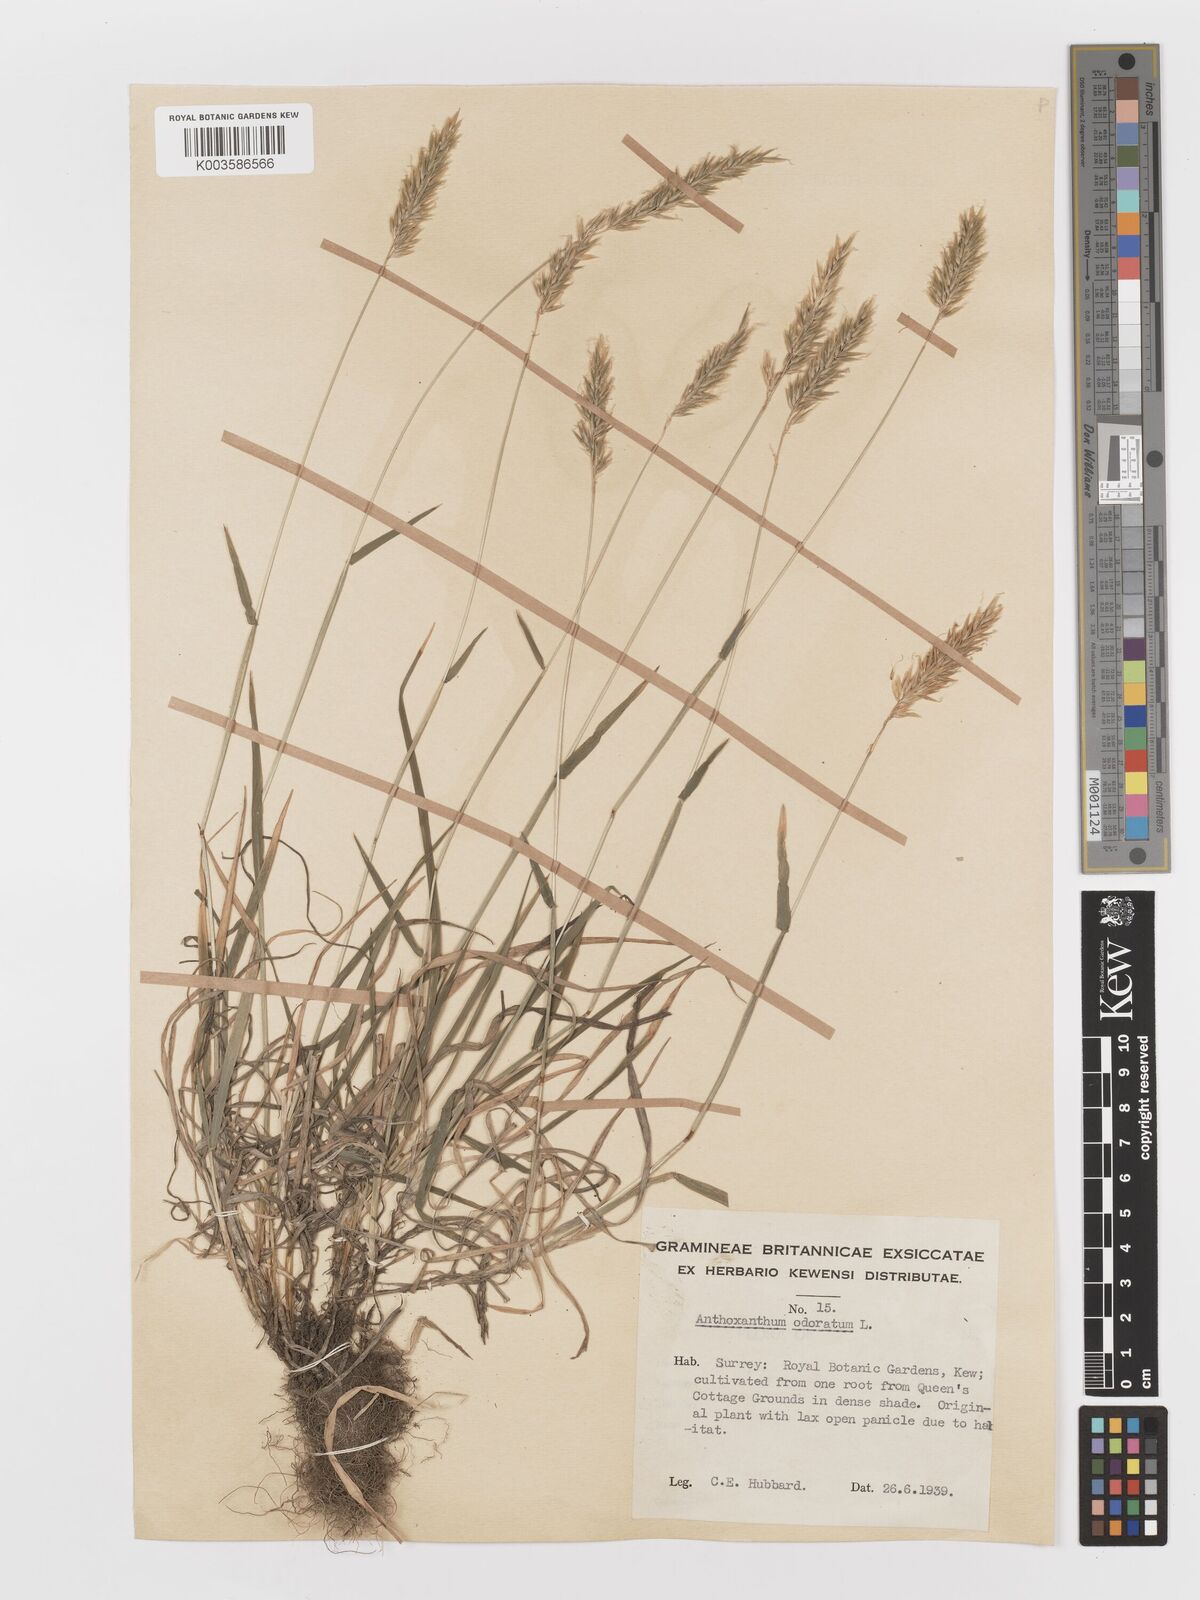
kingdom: Plantae
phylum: Tracheophyta
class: Liliopsida
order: Poales
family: Poaceae
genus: Anthoxanthum
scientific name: Anthoxanthum odoratum
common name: Sweet vernalgrass
